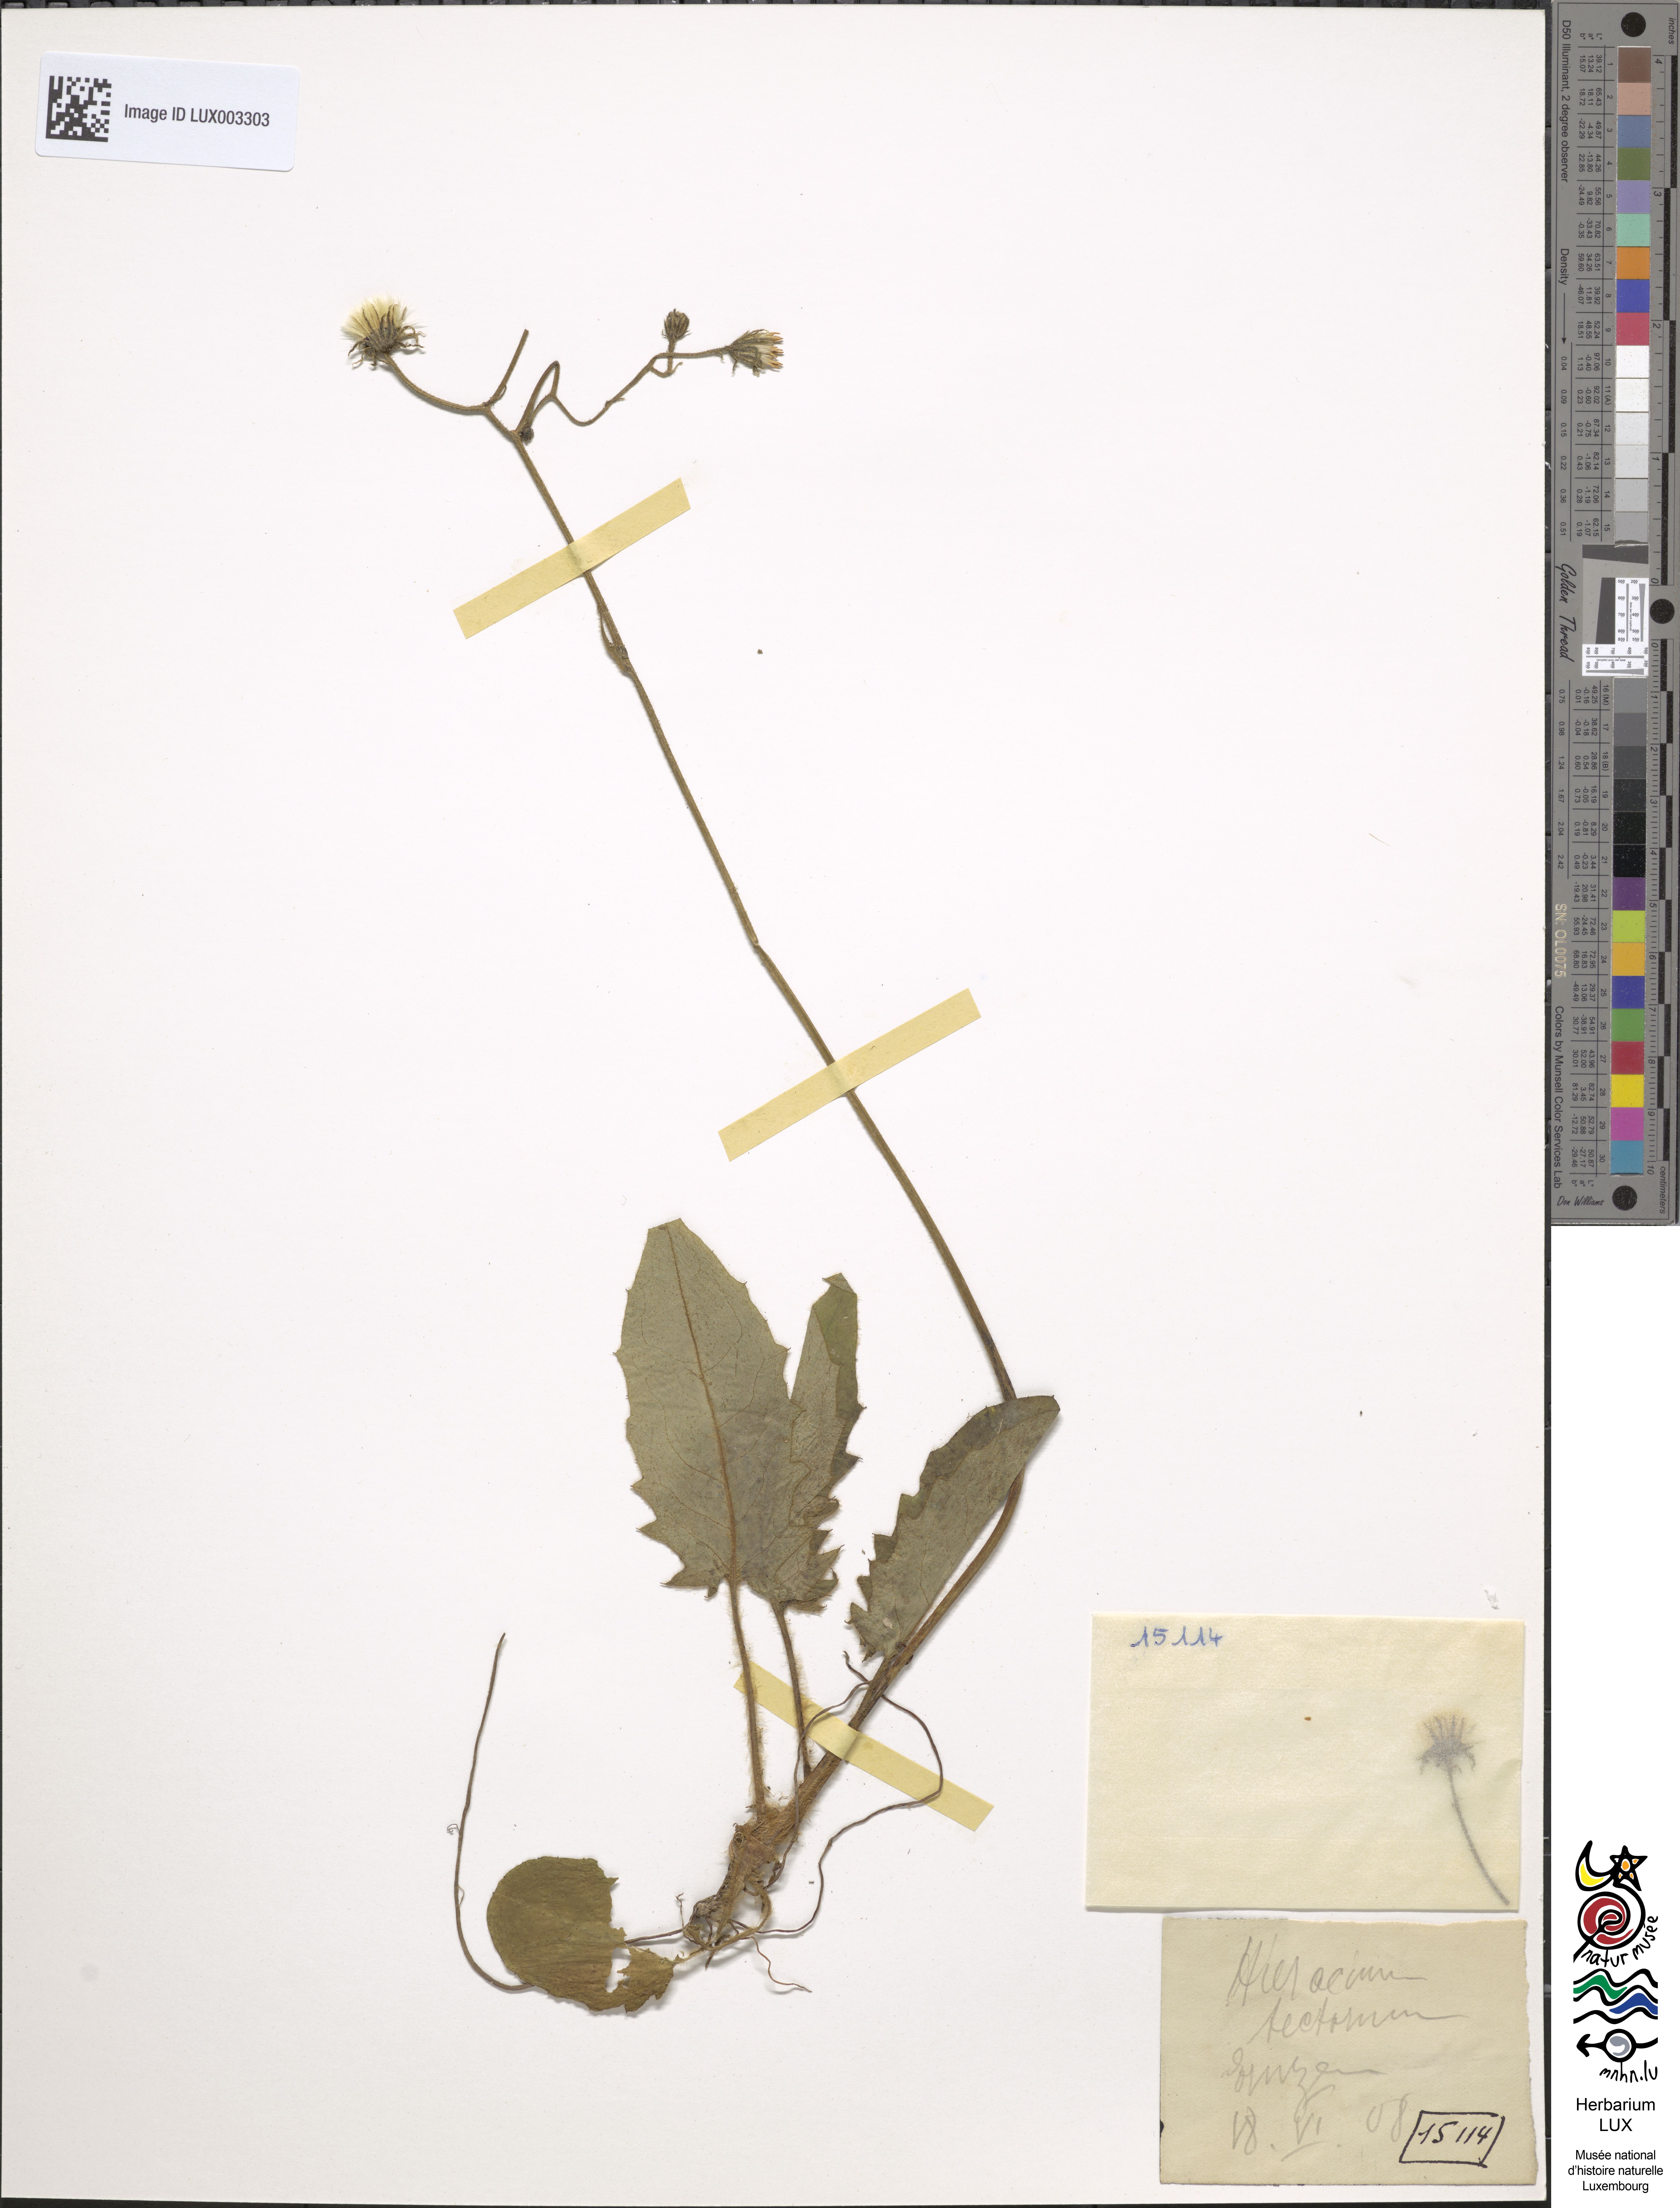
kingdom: Plantae
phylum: Tracheophyta
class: Magnoliopsida
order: Asterales
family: Asteraceae
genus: Hieracium
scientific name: Hieracium murorum
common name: Wall hawkweed
